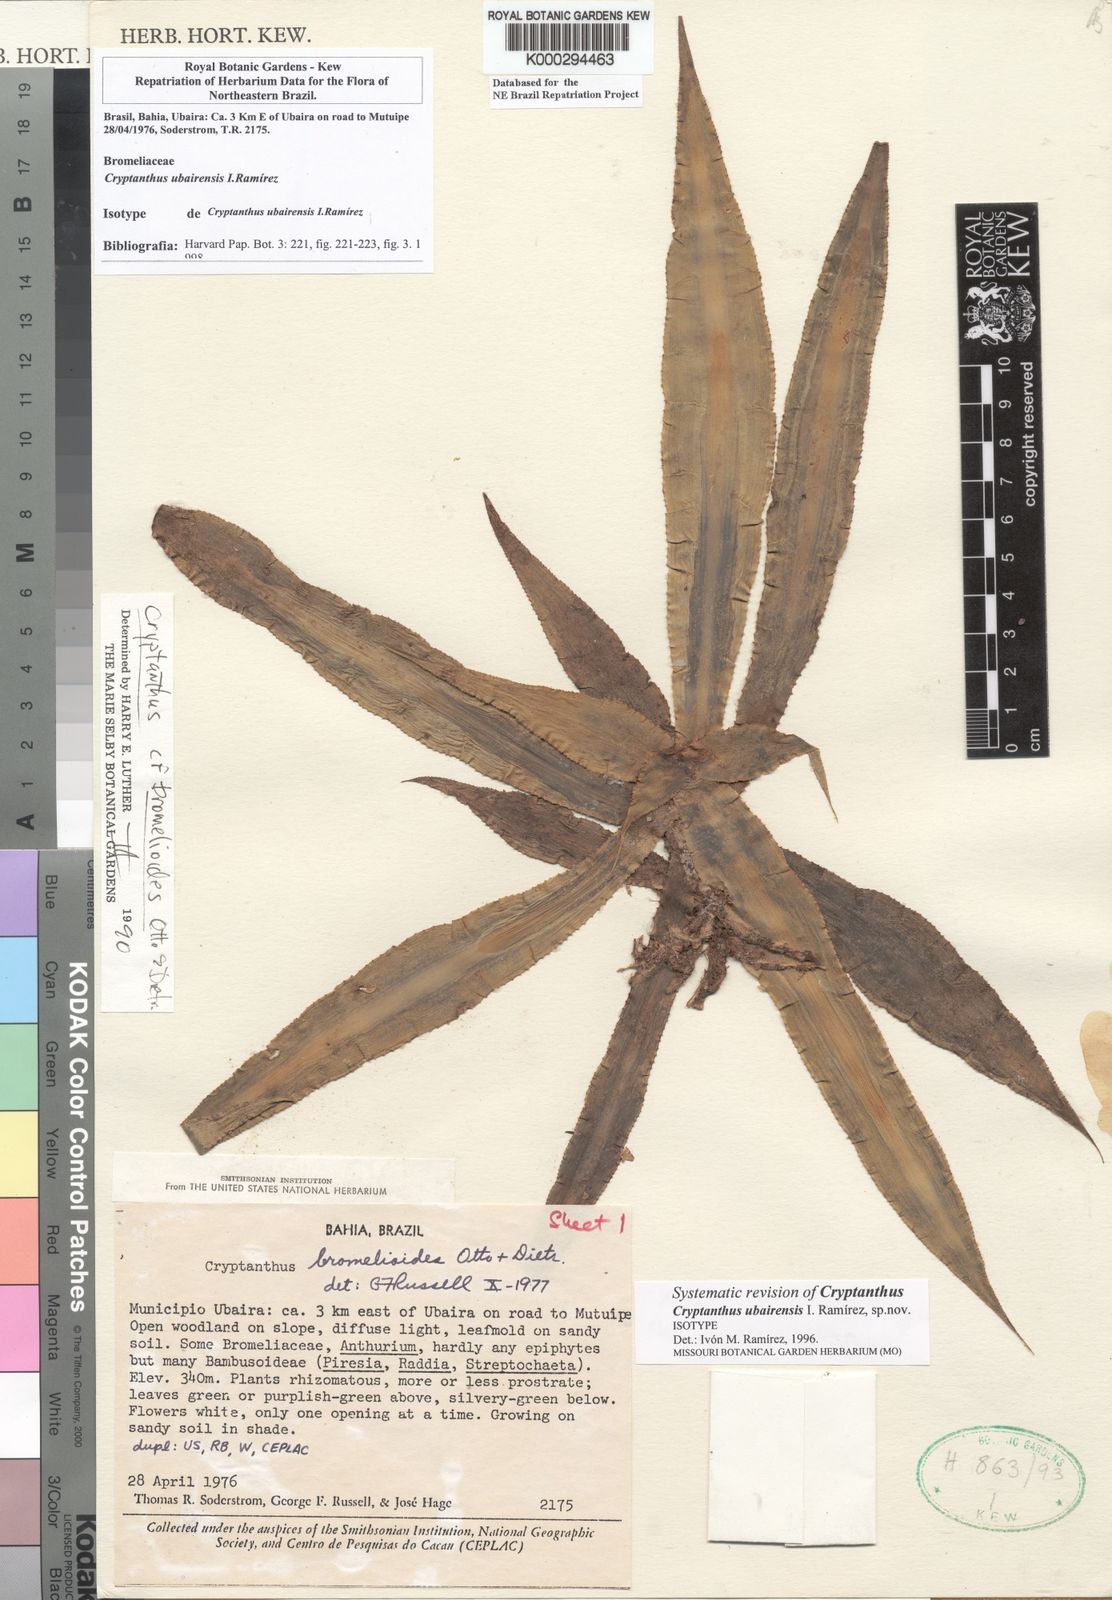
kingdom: Plantae
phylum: Tracheophyta
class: Liliopsida
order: Poales
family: Bromeliaceae
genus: Cryptanthus
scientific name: Cryptanthus
